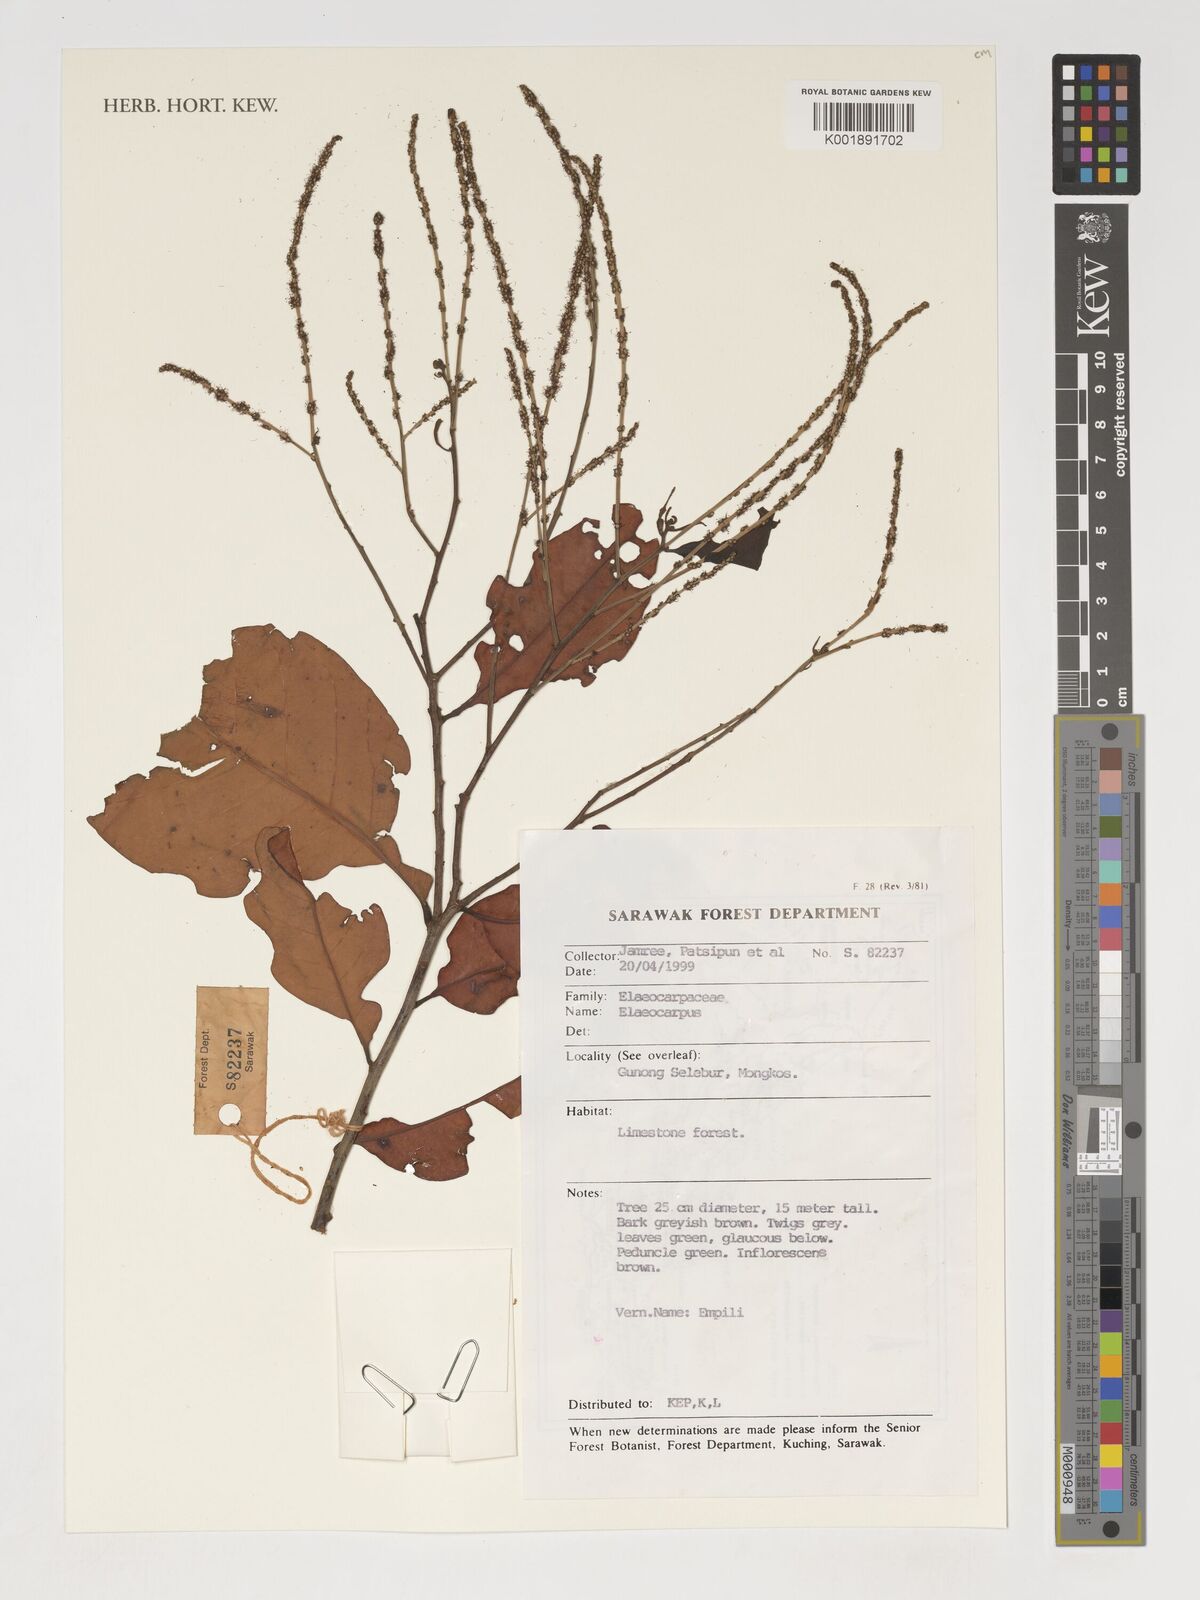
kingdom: Plantae
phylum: Tracheophyta
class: Magnoliopsida
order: Oxalidales
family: Elaeocarpaceae
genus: Elaeocarpus
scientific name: Elaeocarpus
